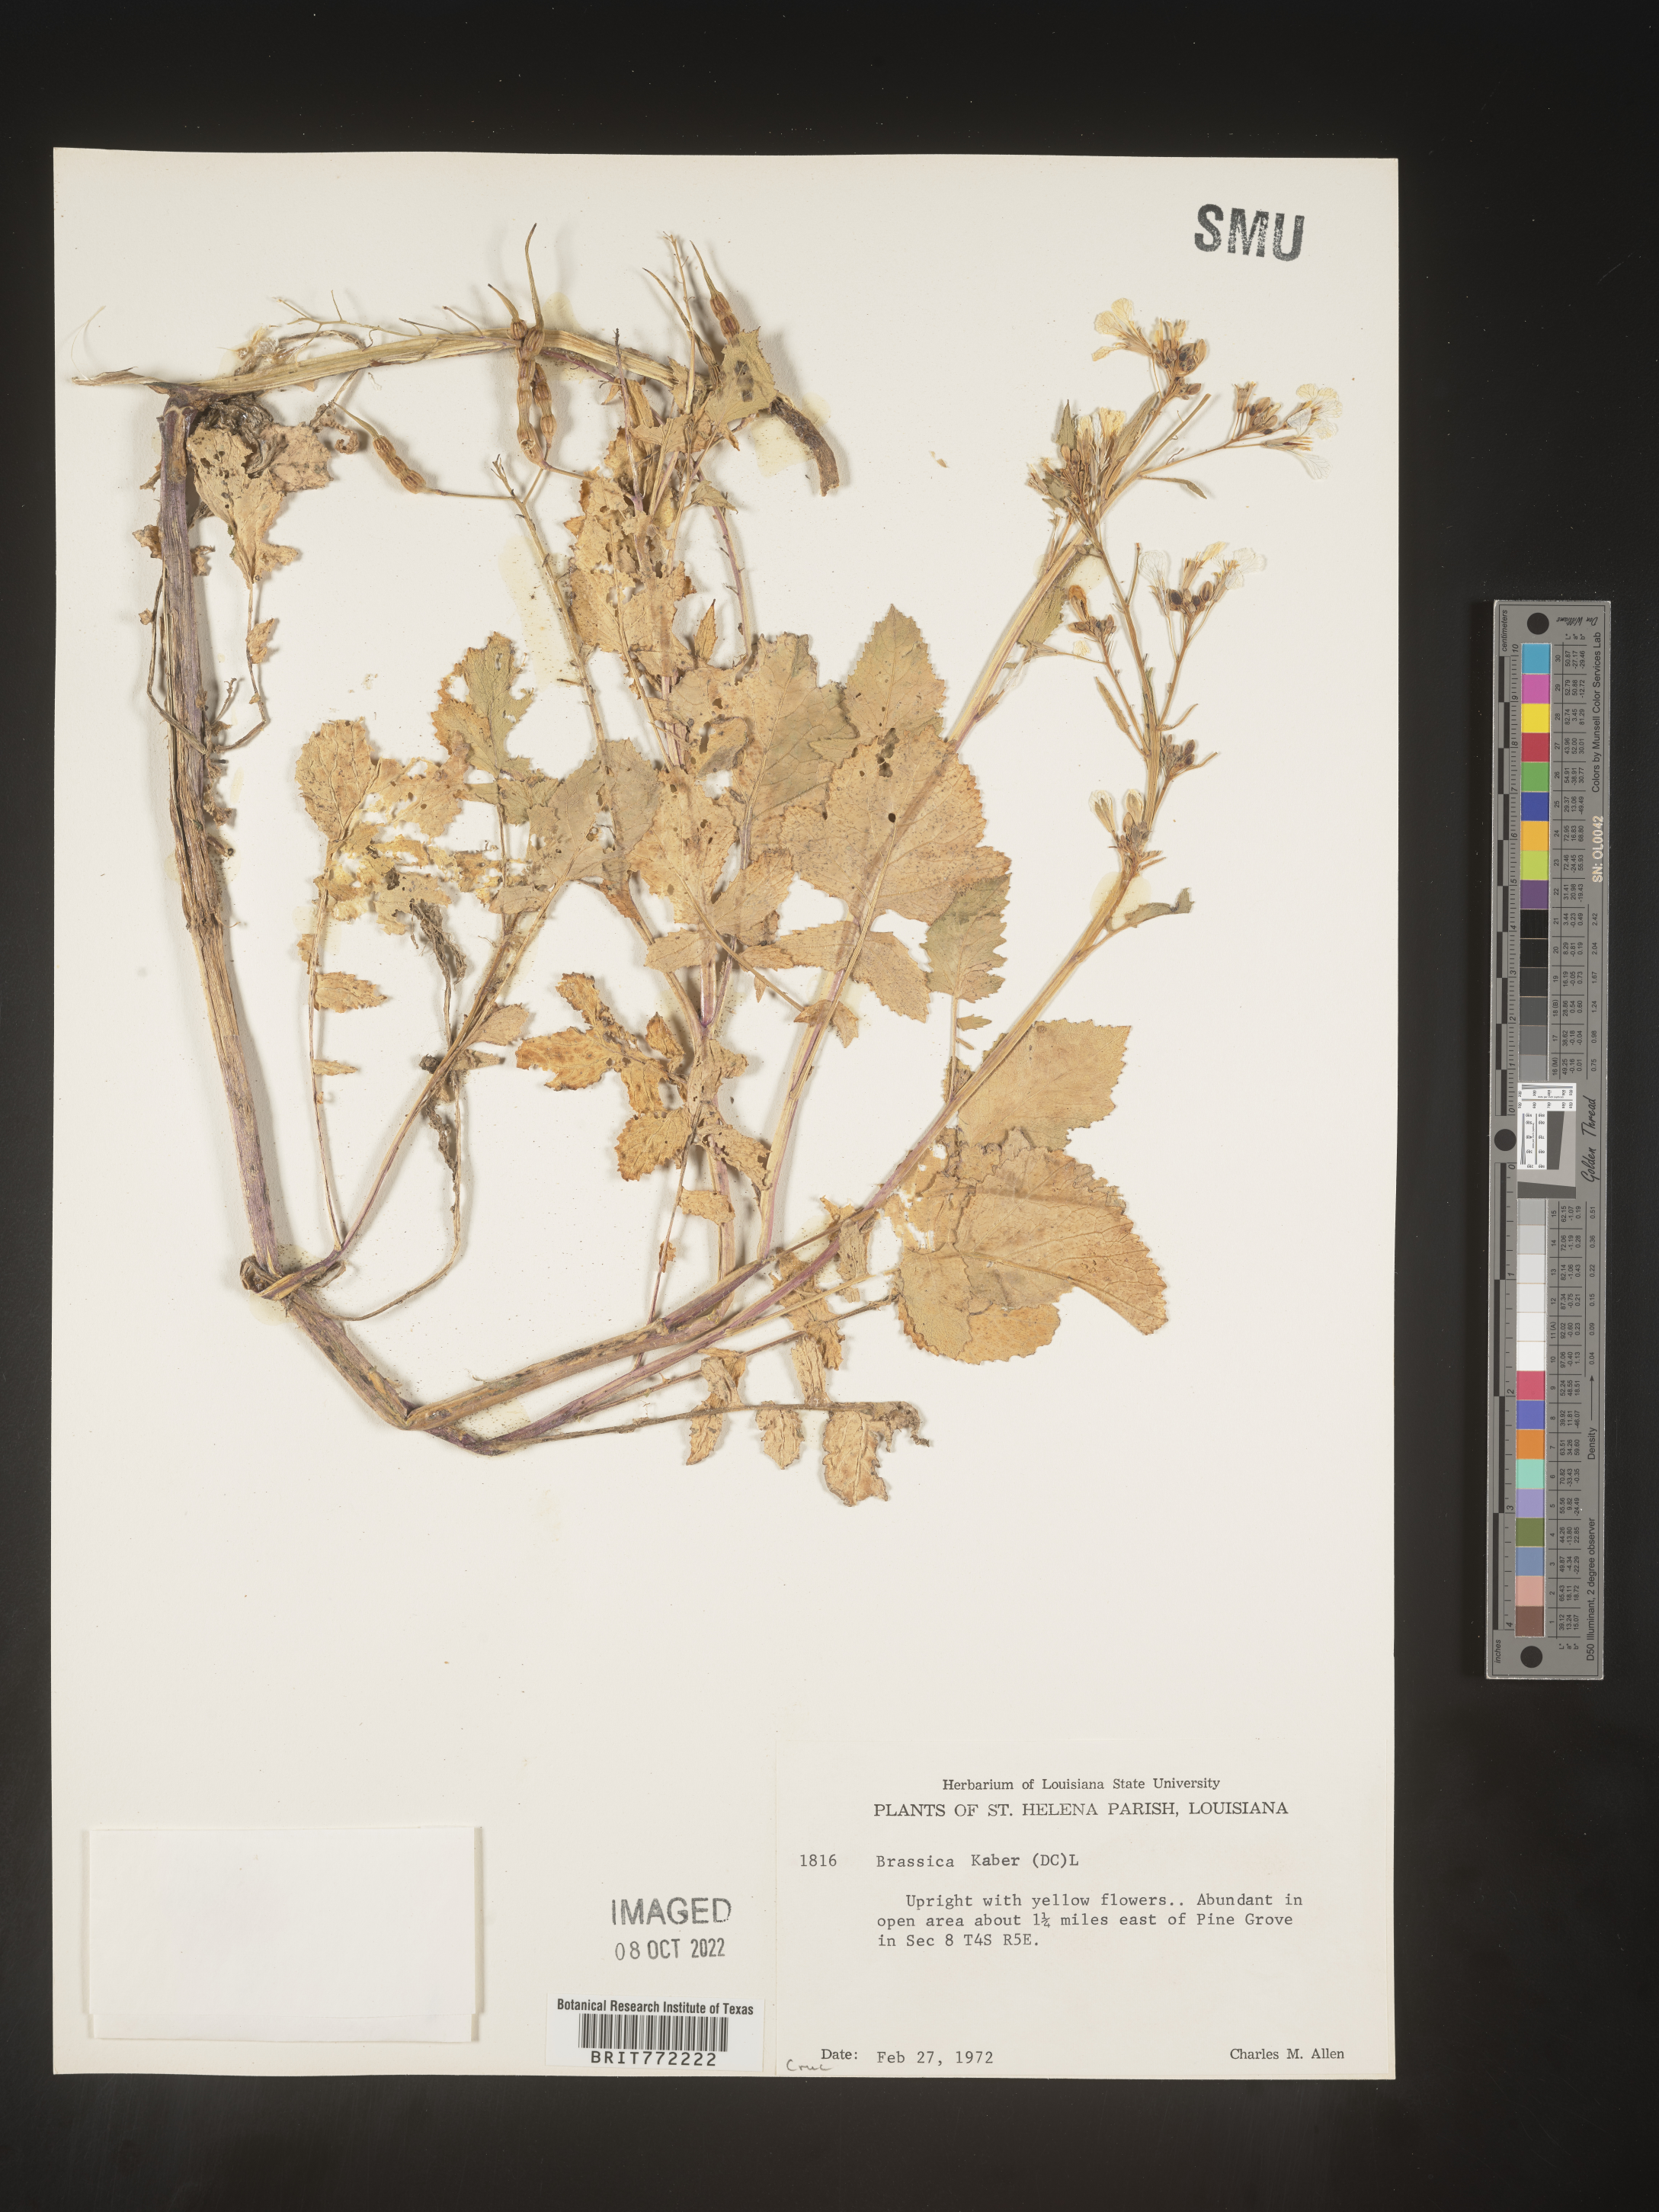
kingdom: Plantae
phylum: Tracheophyta
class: Magnoliopsida
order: Brassicales
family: Brassicaceae
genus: Sinapis
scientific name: Sinapis arvensis
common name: Charlock
